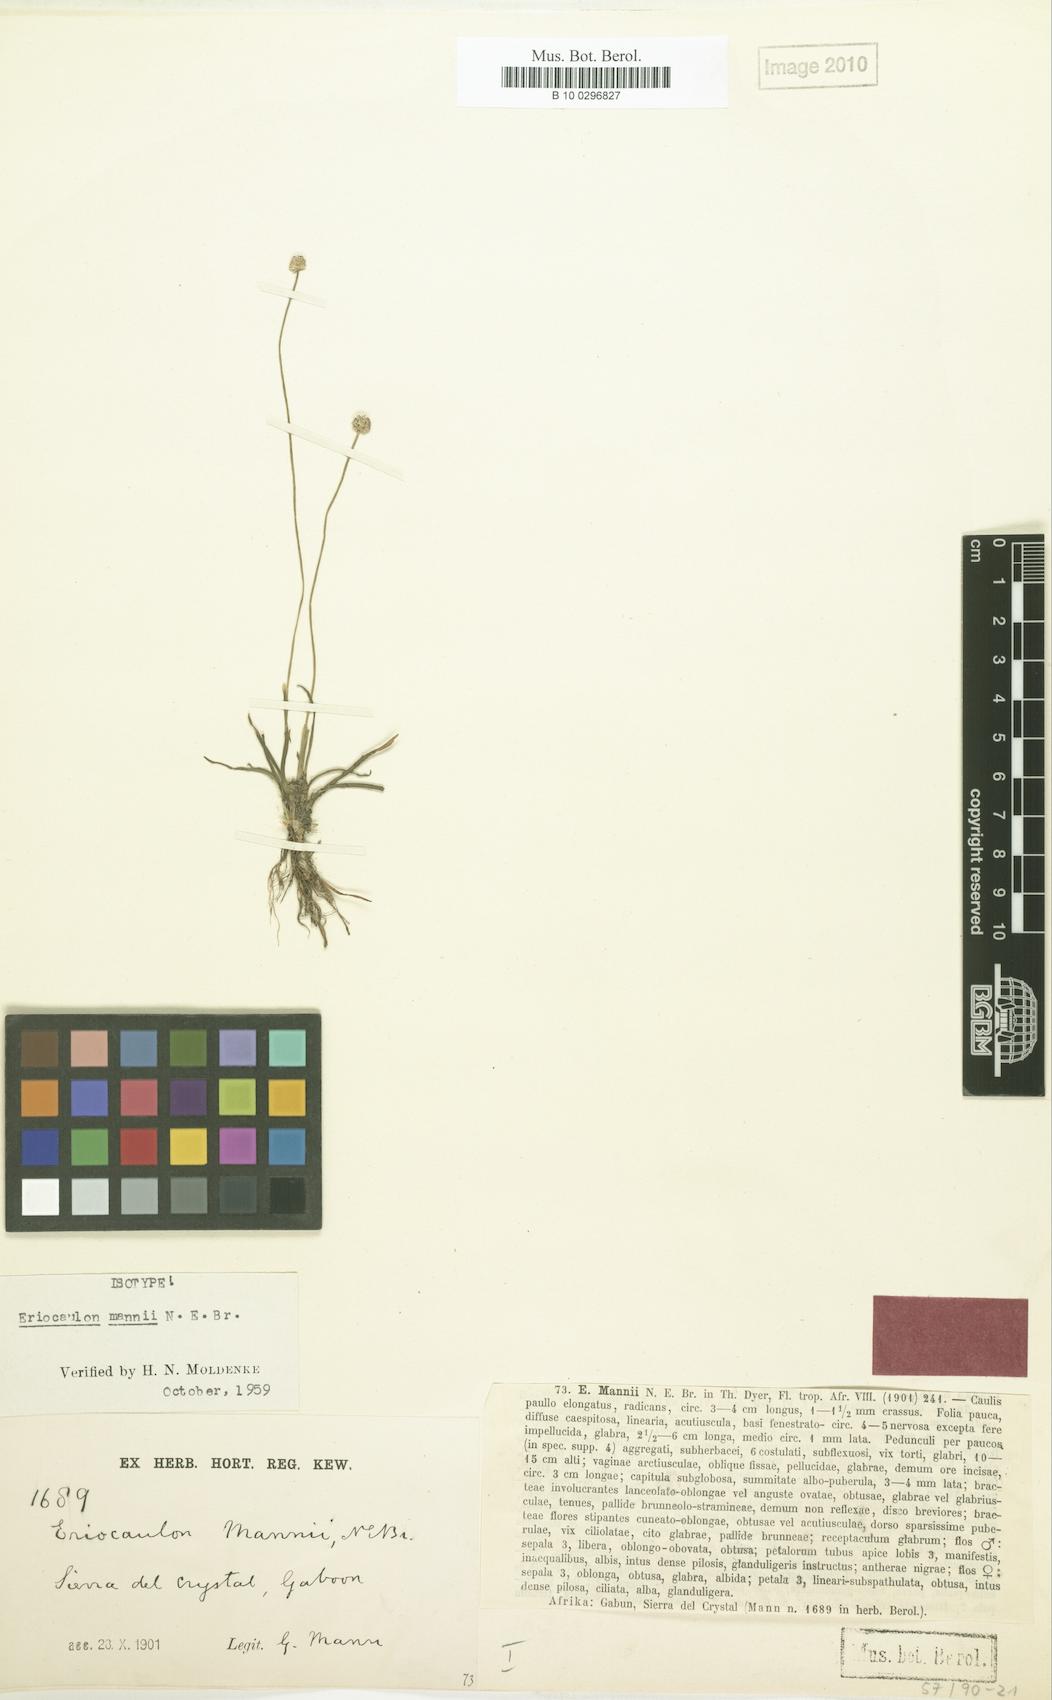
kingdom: Plantae
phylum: Tracheophyta
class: Liliopsida
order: Poales
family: Eriocaulaceae
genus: Eriocaulon
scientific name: Eriocaulon mannii
